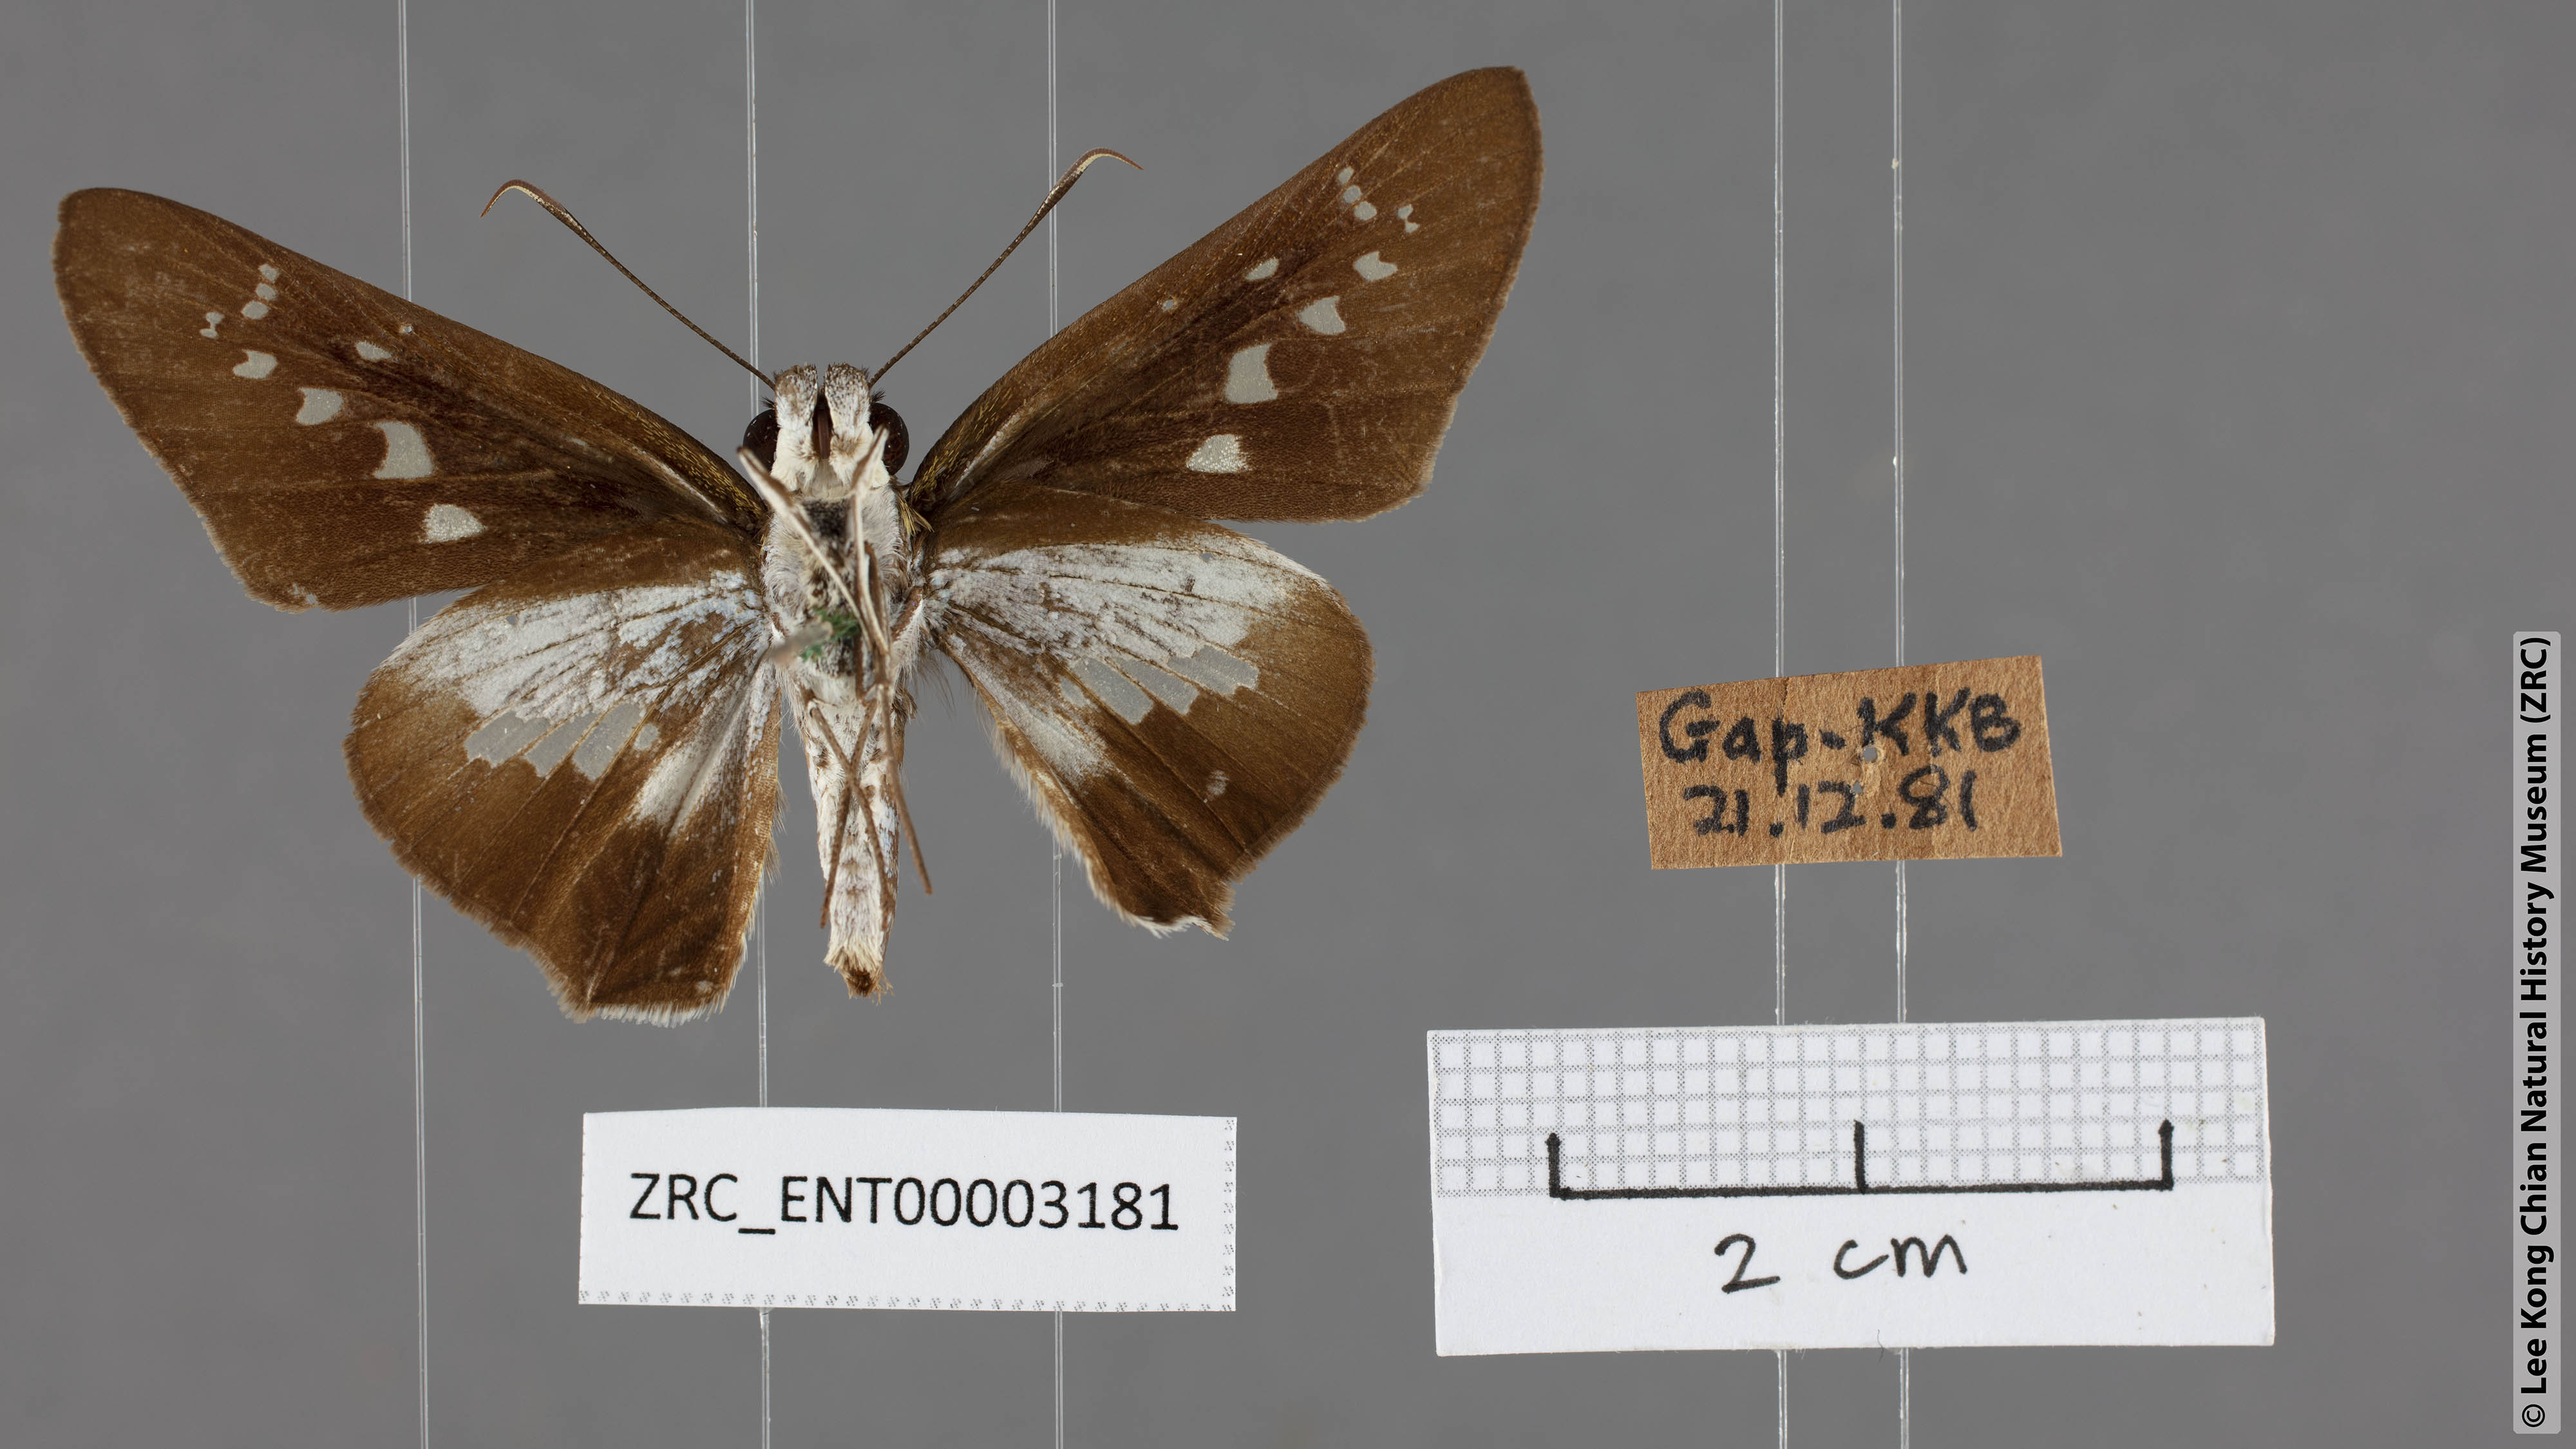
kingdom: Animalia
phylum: Arthropoda
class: Insecta
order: Lepidoptera
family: Hesperiidae
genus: Eetion
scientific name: Eetion elia
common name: White spotted palmer
